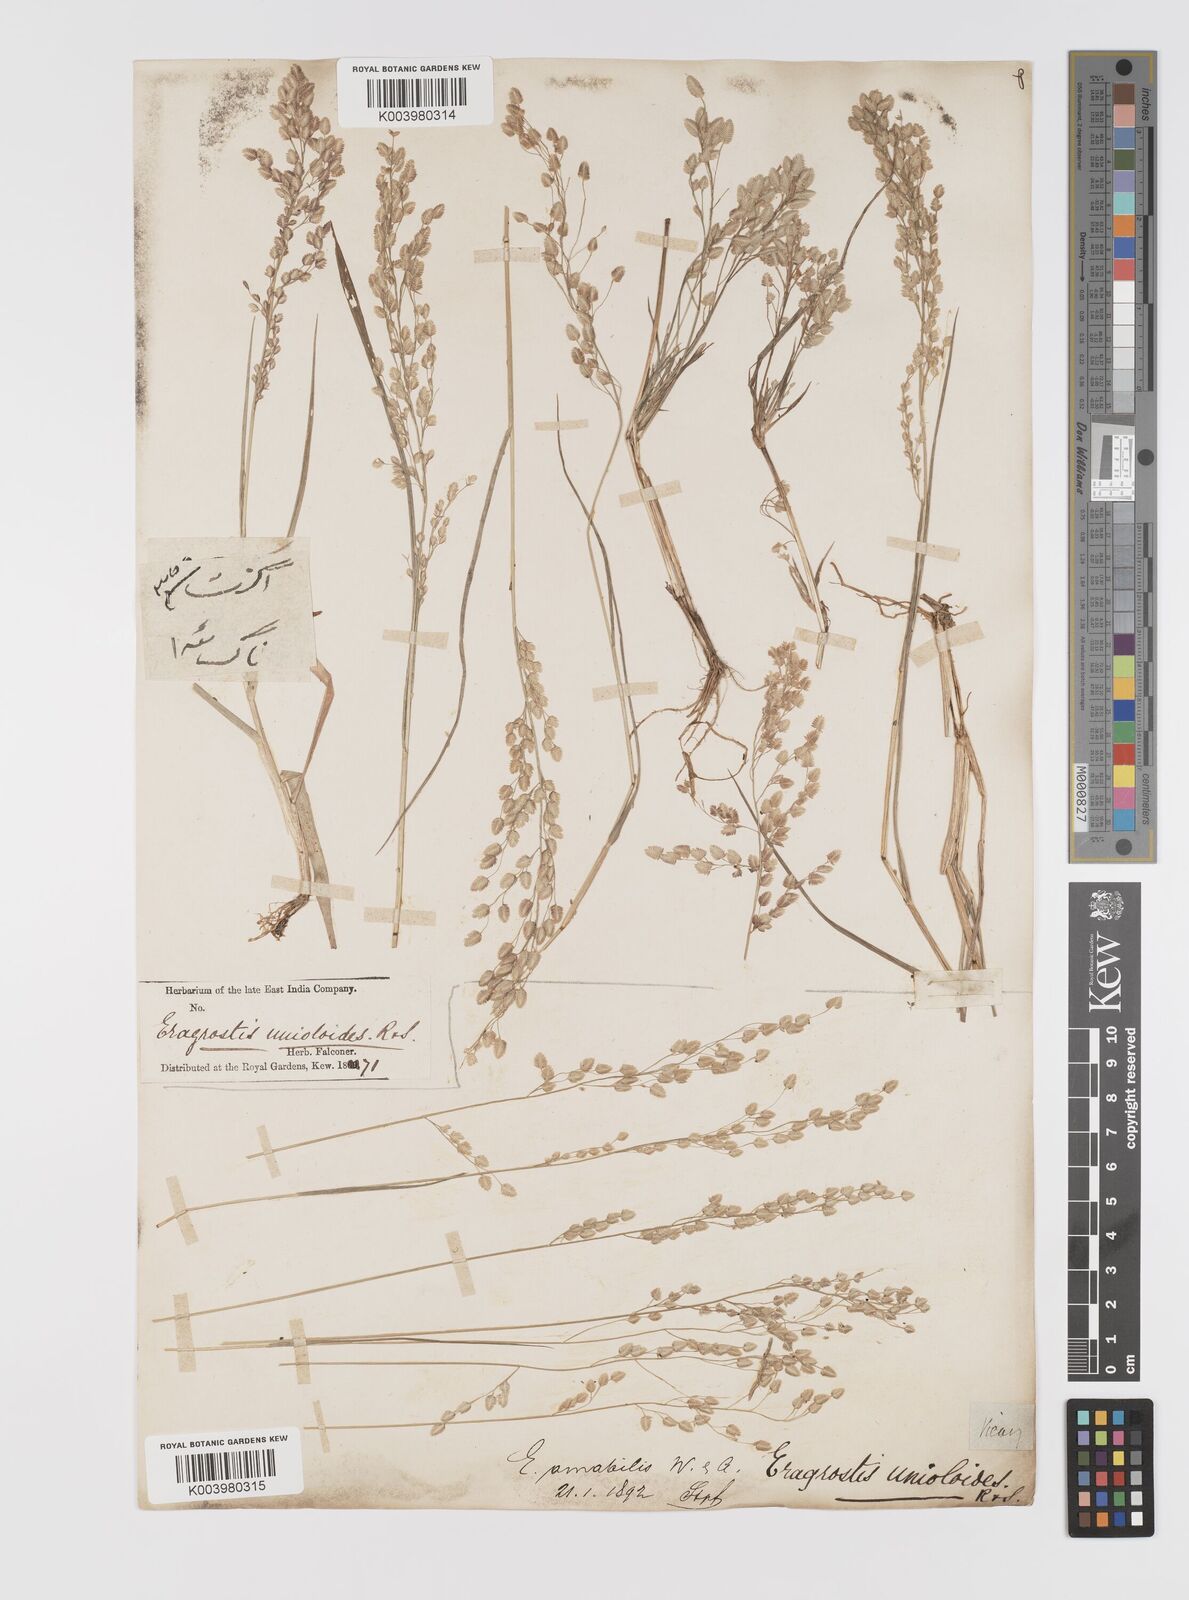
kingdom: Plantae
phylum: Tracheophyta
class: Liliopsida
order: Poales
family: Poaceae
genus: Eragrostis
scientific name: Eragrostis unioloides
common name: Chinese lovegrass
